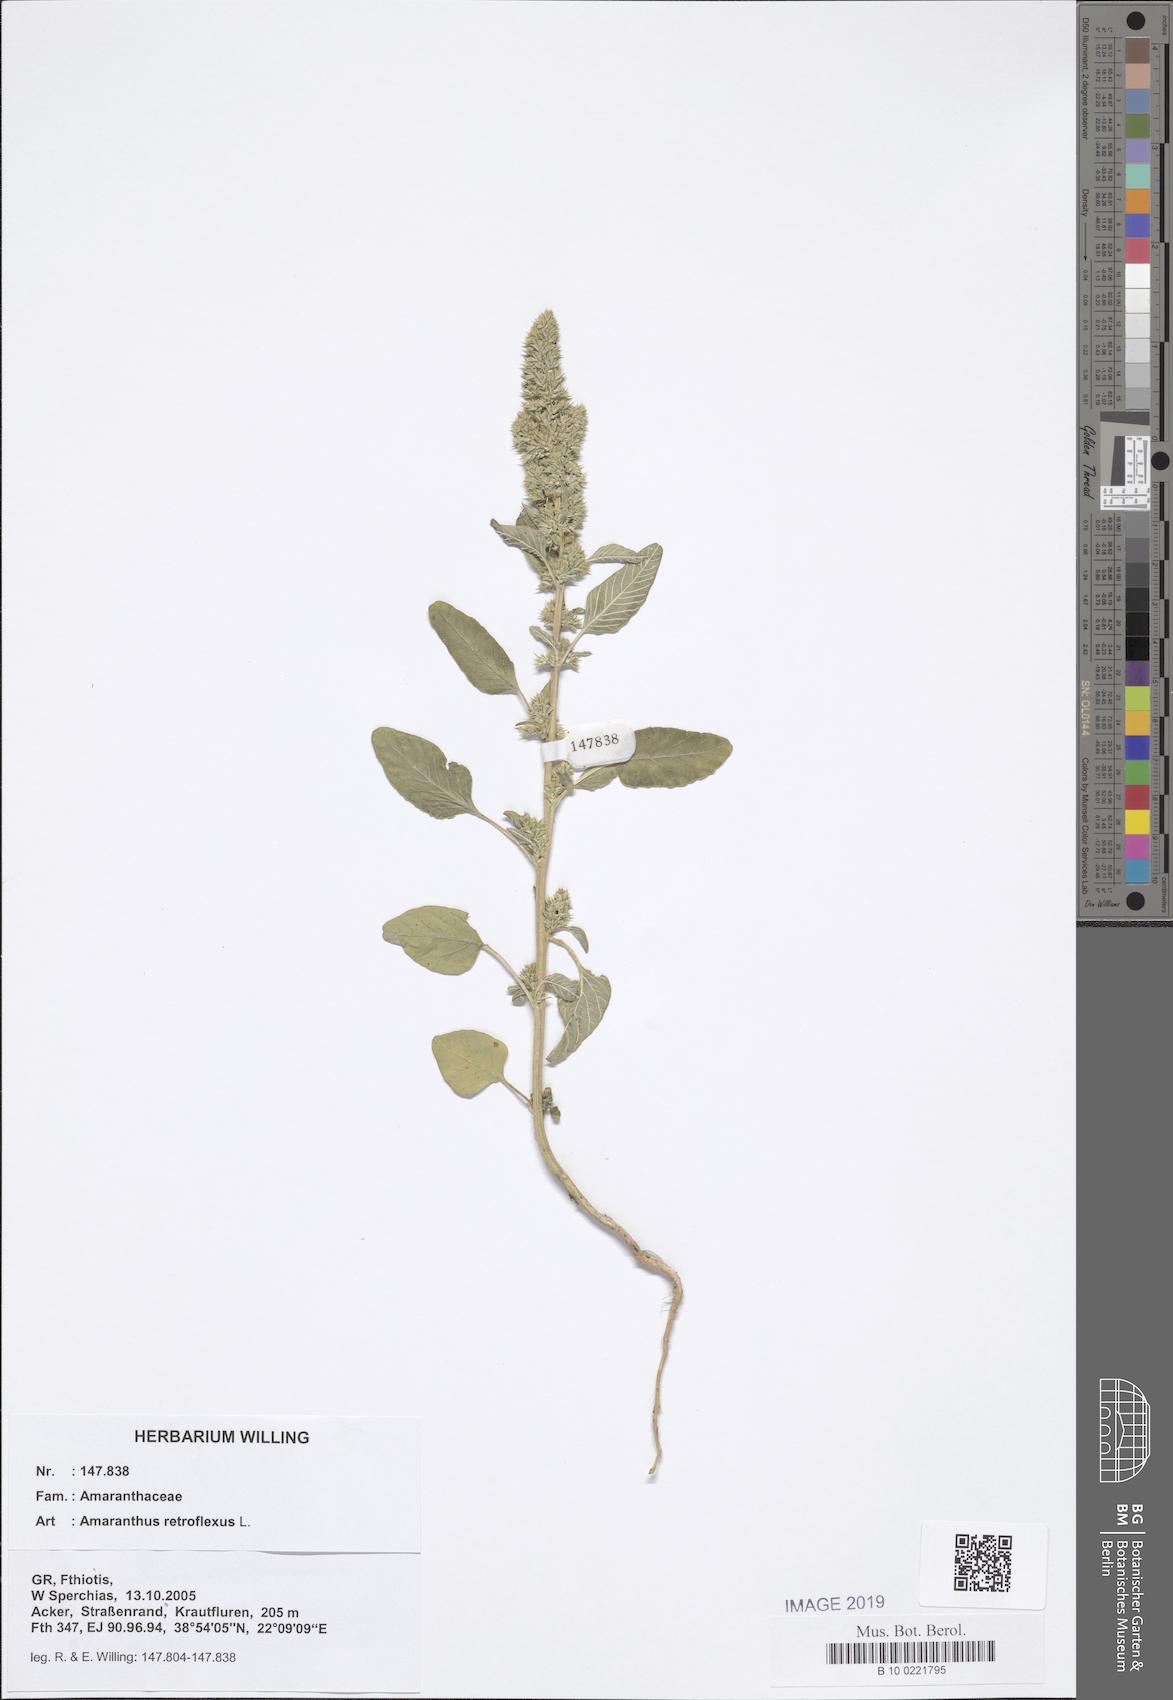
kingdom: Plantae
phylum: Tracheophyta
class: Magnoliopsida
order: Caryophyllales
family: Amaranthaceae
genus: Amaranthus
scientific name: Amaranthus retroflexus
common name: Redroot amaranth
